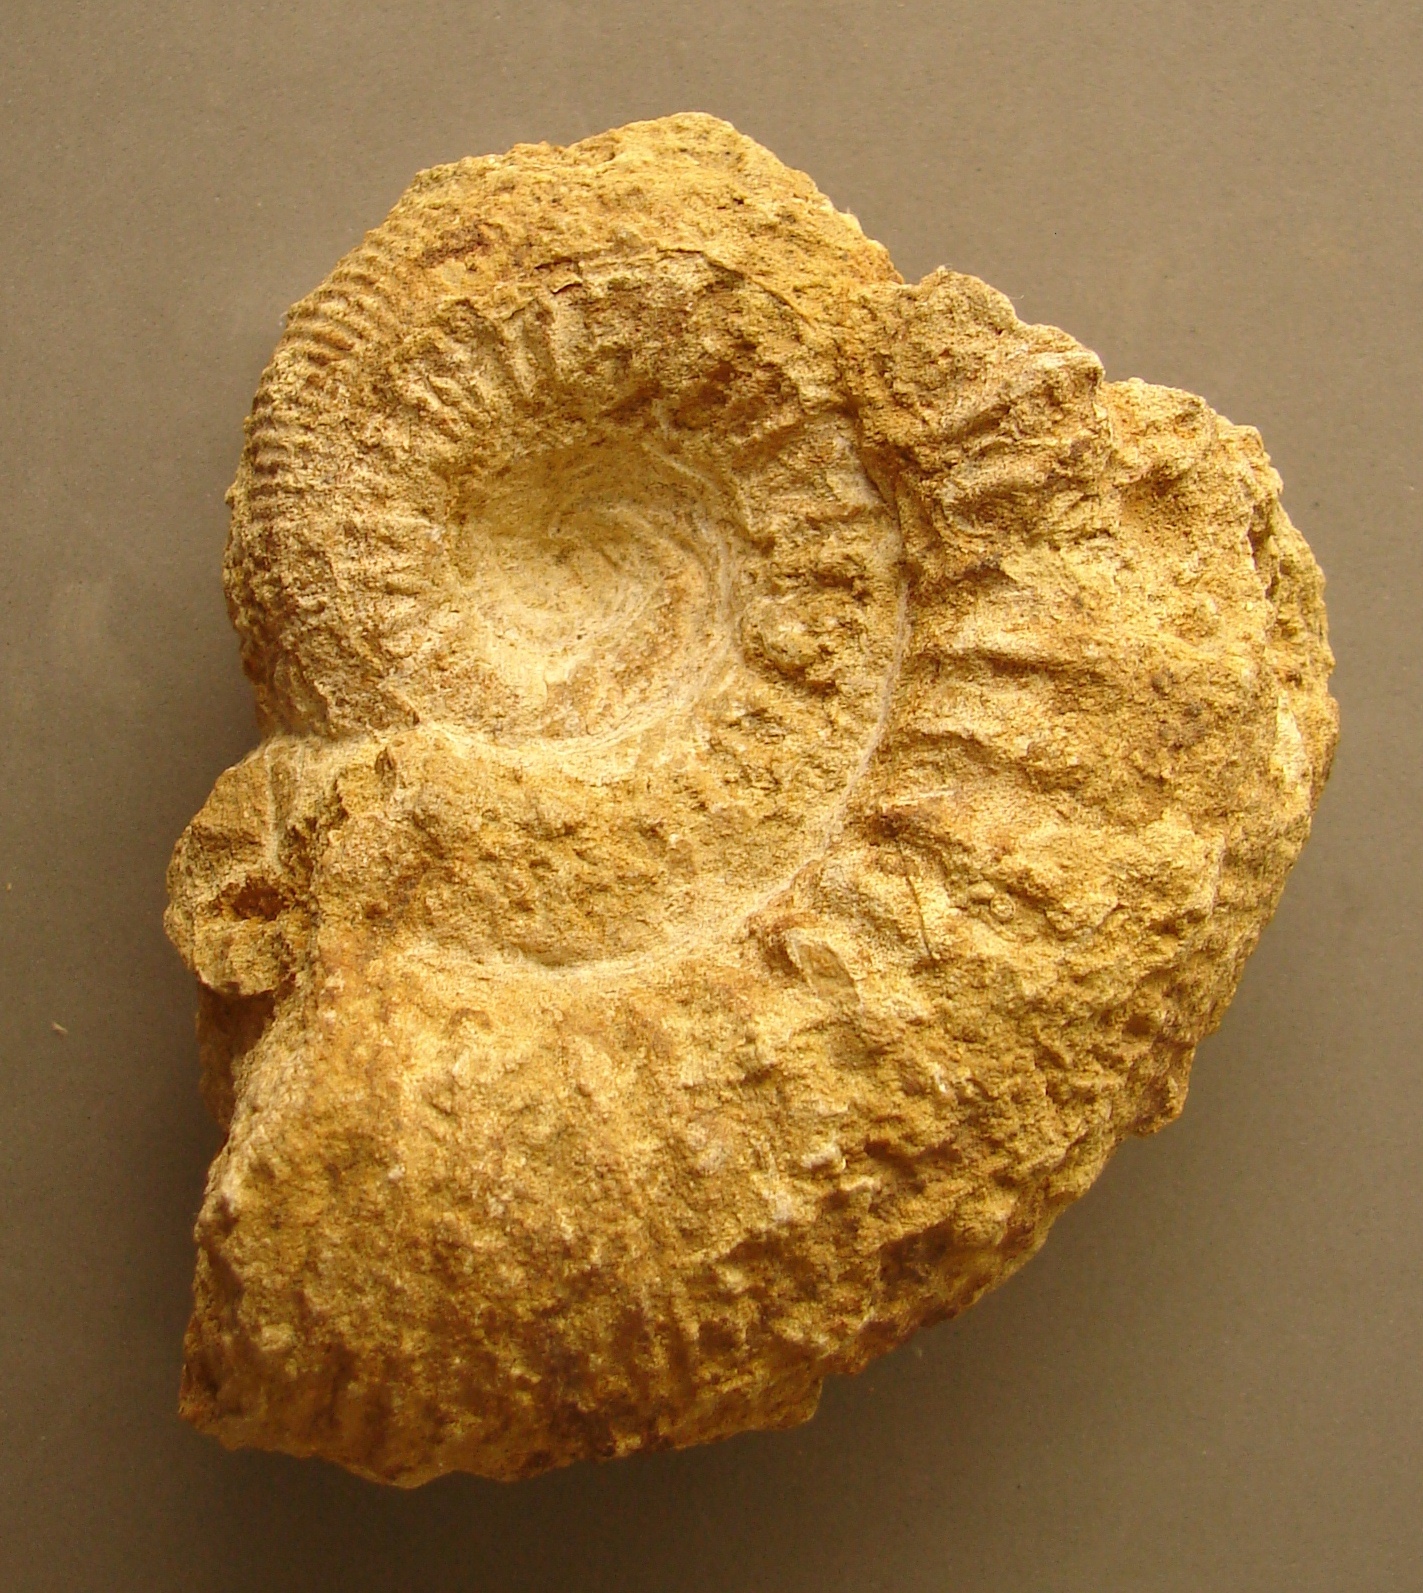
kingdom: Animalia
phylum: Mollusca
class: Cephalopoda
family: Stephanoceratidae
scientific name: Stephanoceratidae
